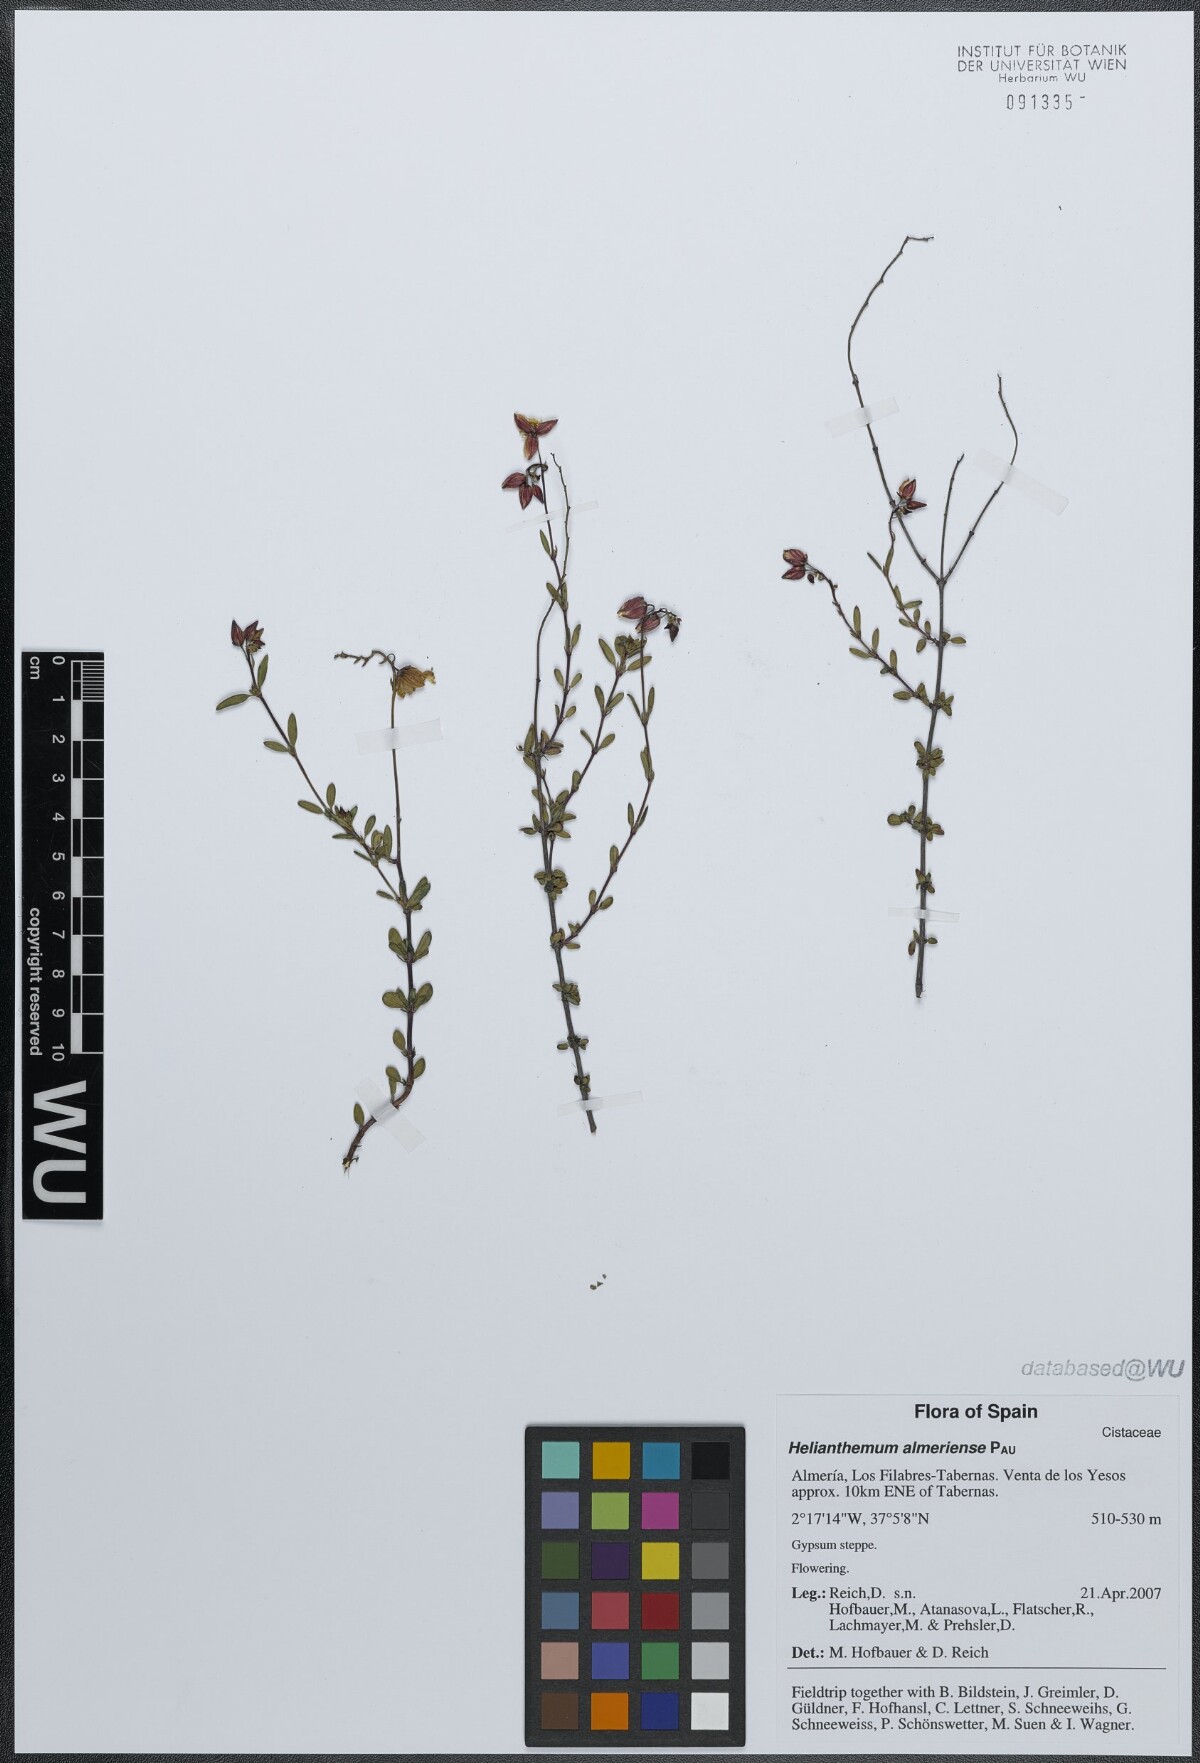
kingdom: Plantae
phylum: Tracheophyta
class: Magnoliopsida
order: Malvales
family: Cistaceae
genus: Helianthemum
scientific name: Helianthemum almeriense
